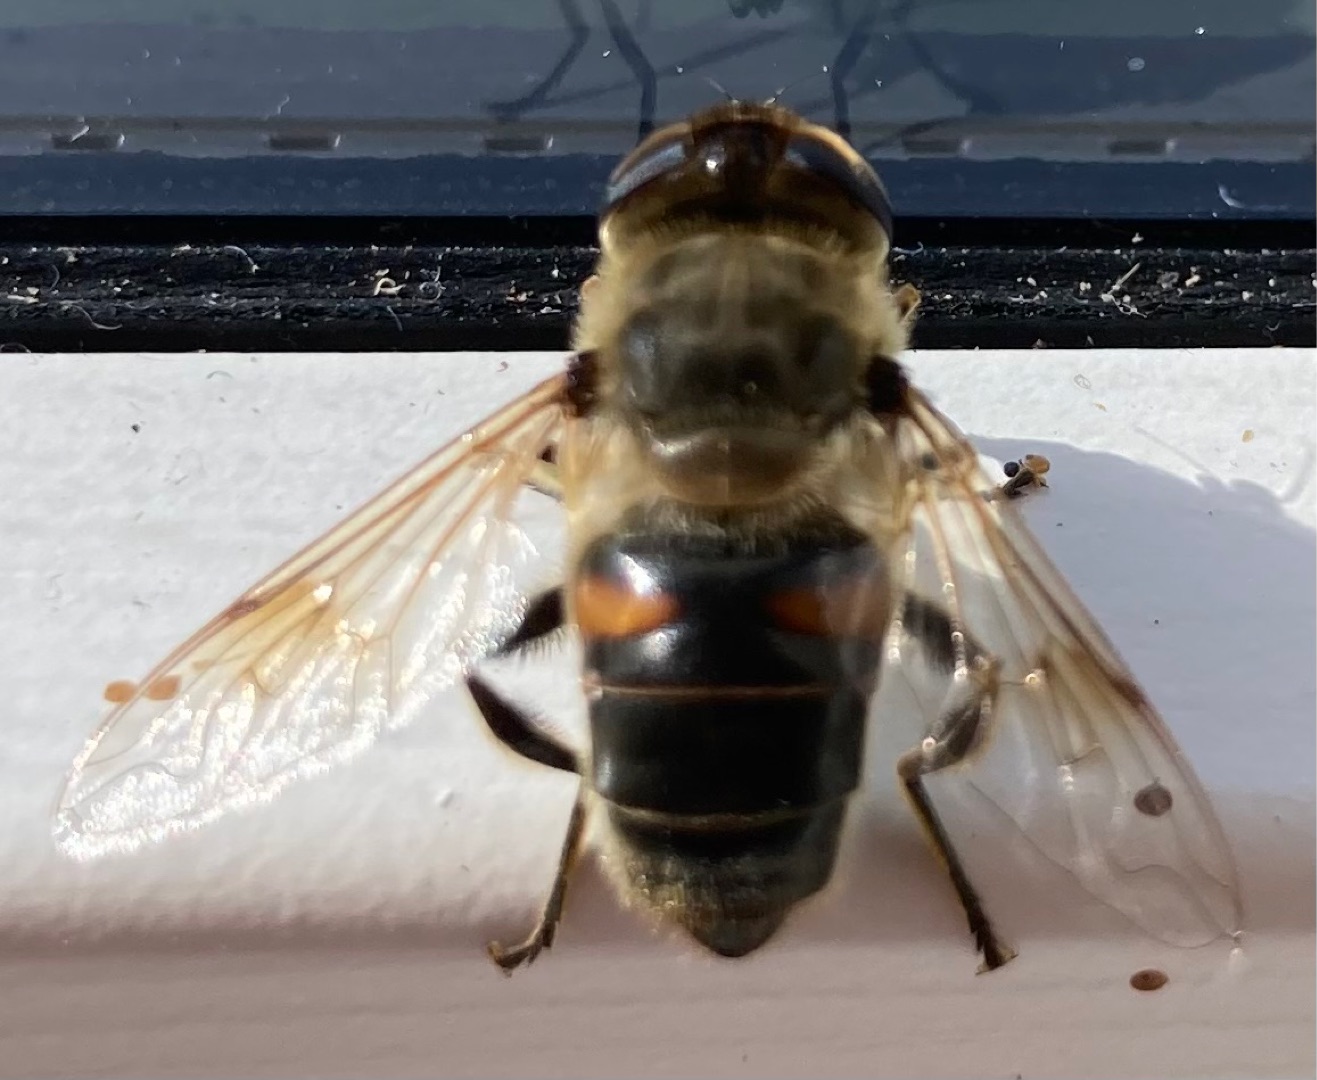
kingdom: Animalia
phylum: Arthropoda
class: Insecta
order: Diptera
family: Syrphidae
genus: Eristalis
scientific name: Eristalis tenax
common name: Droneflue
